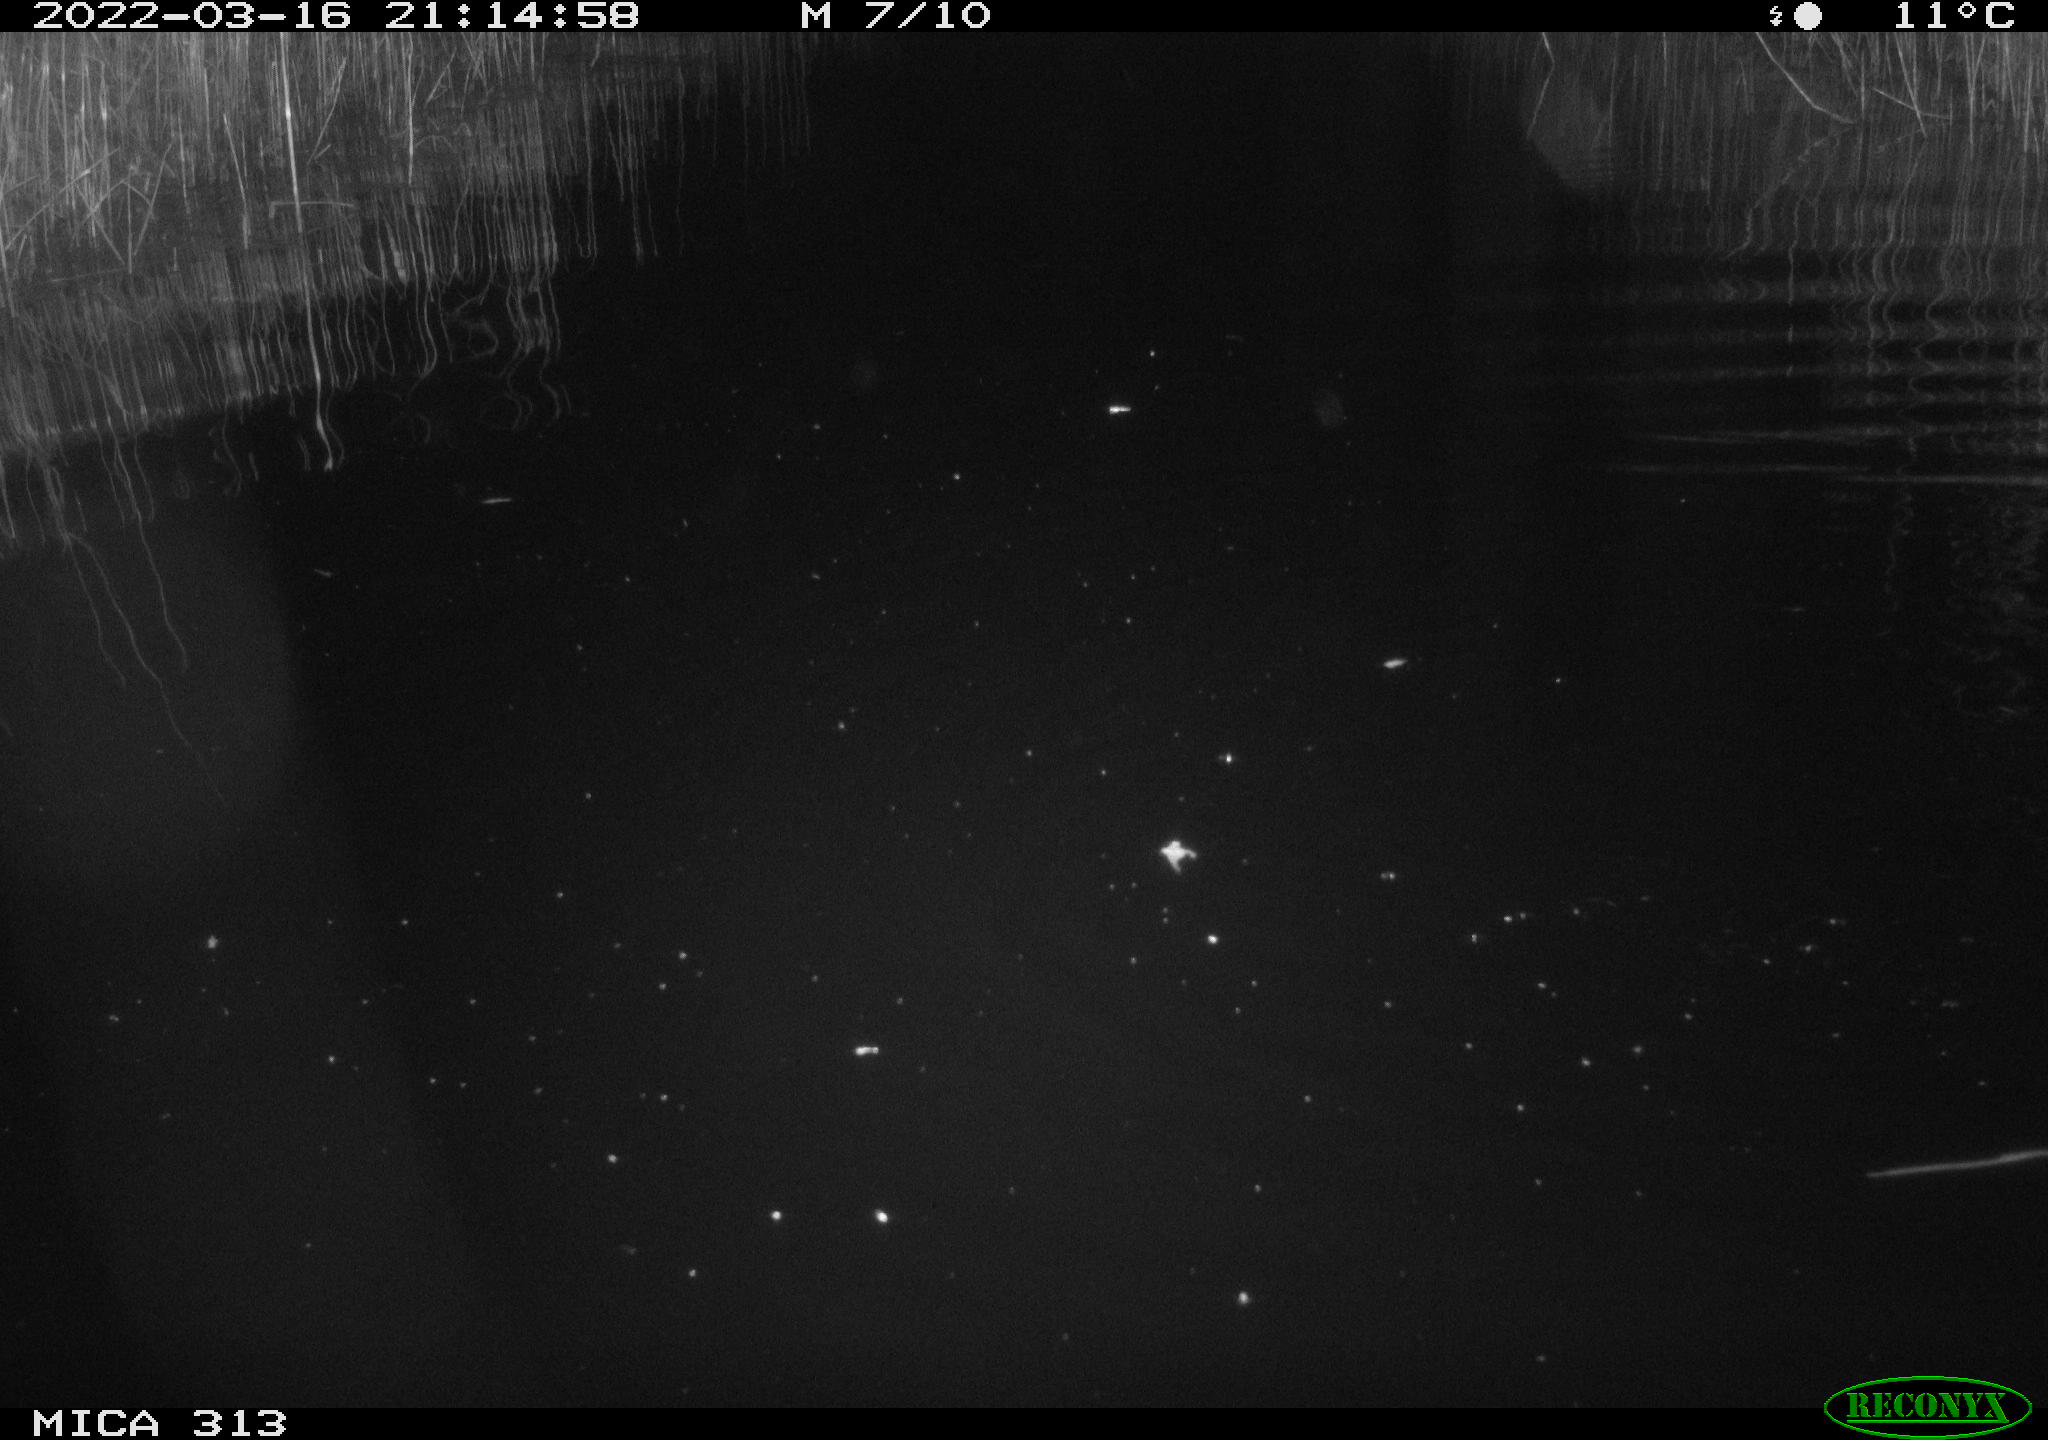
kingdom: Animalia
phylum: Chordata
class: Aves
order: Anseriformes
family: Anatidae
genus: Anas
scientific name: Anas platyrhynchos
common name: Mallard
